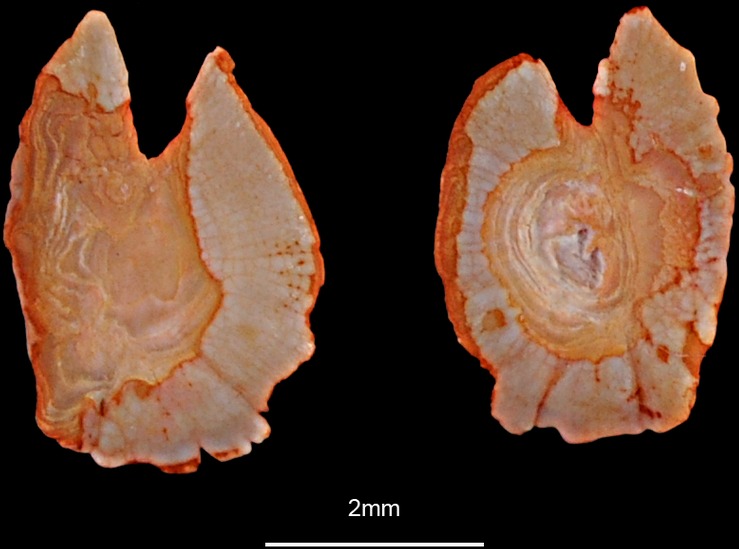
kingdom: Animalia
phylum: Chordata
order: Scorpaeniformes
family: Triglidae
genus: Eutrigla
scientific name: Eutrigla gurnardus
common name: Grey gurnard
